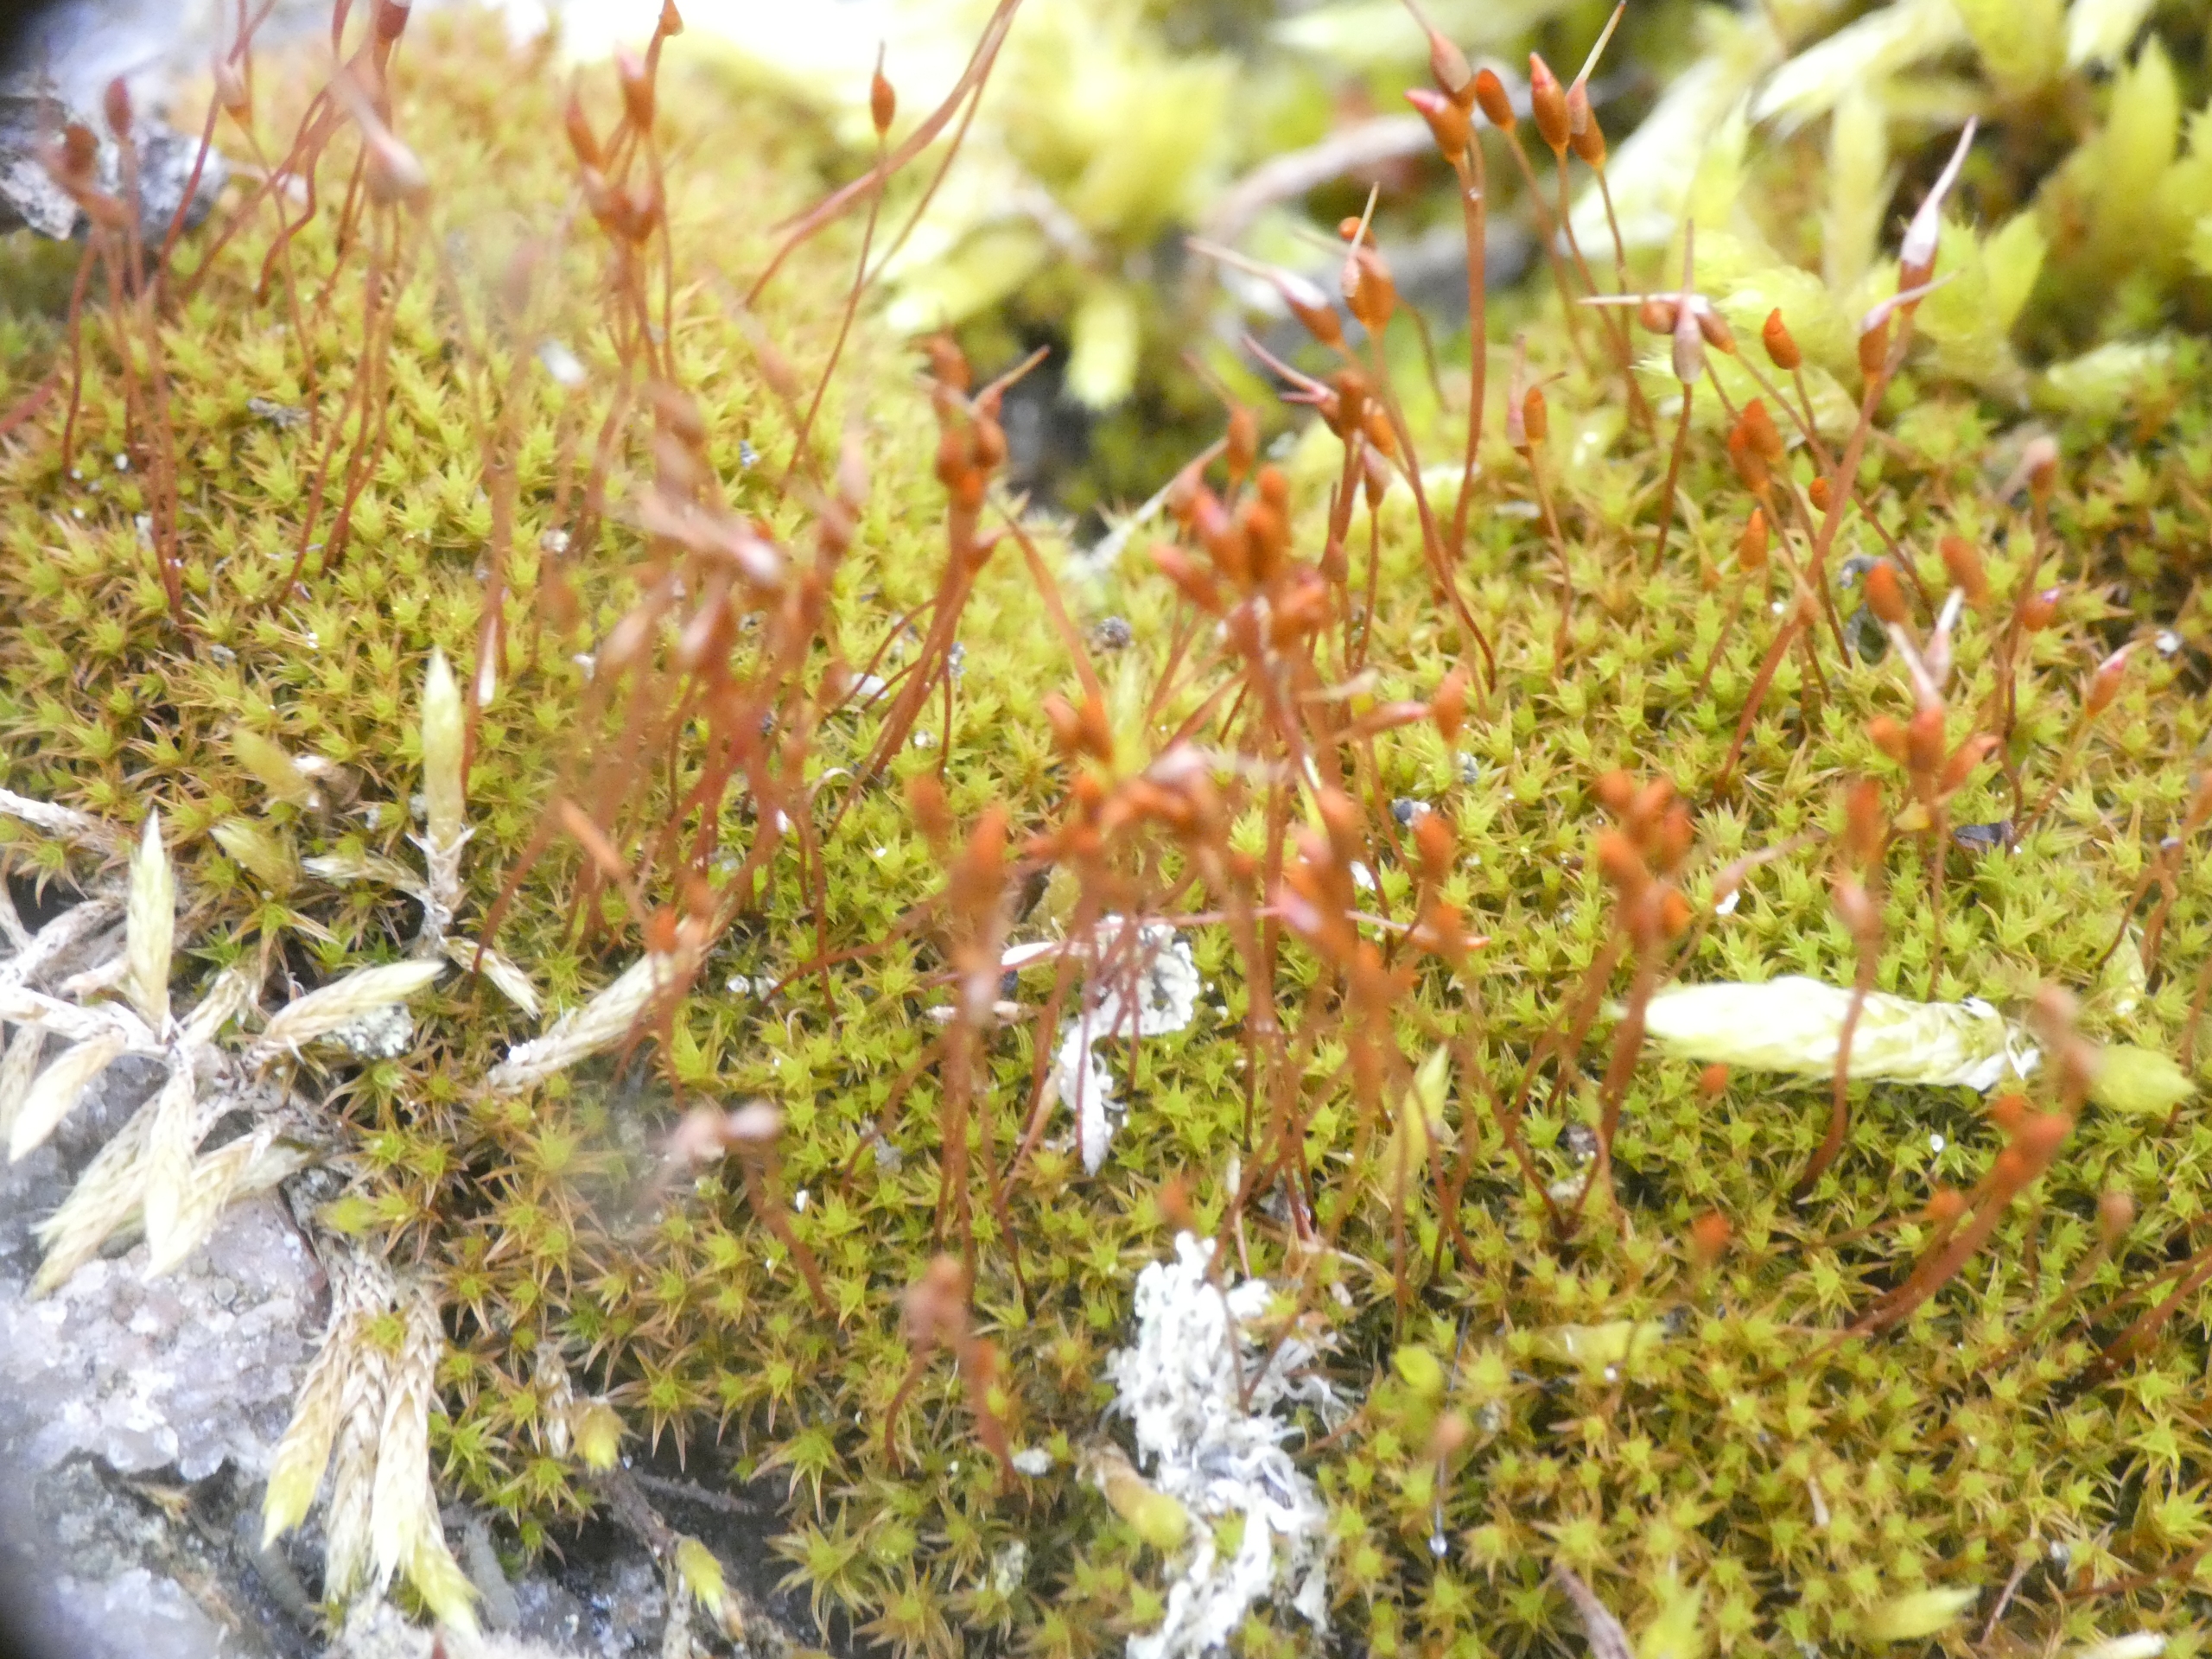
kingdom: Plantae
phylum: Bryophyta
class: Bryopsida
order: Dicranales
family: Ditrichaceae
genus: Ceratodon
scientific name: Ceratodon purpureus
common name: Rød horntand
